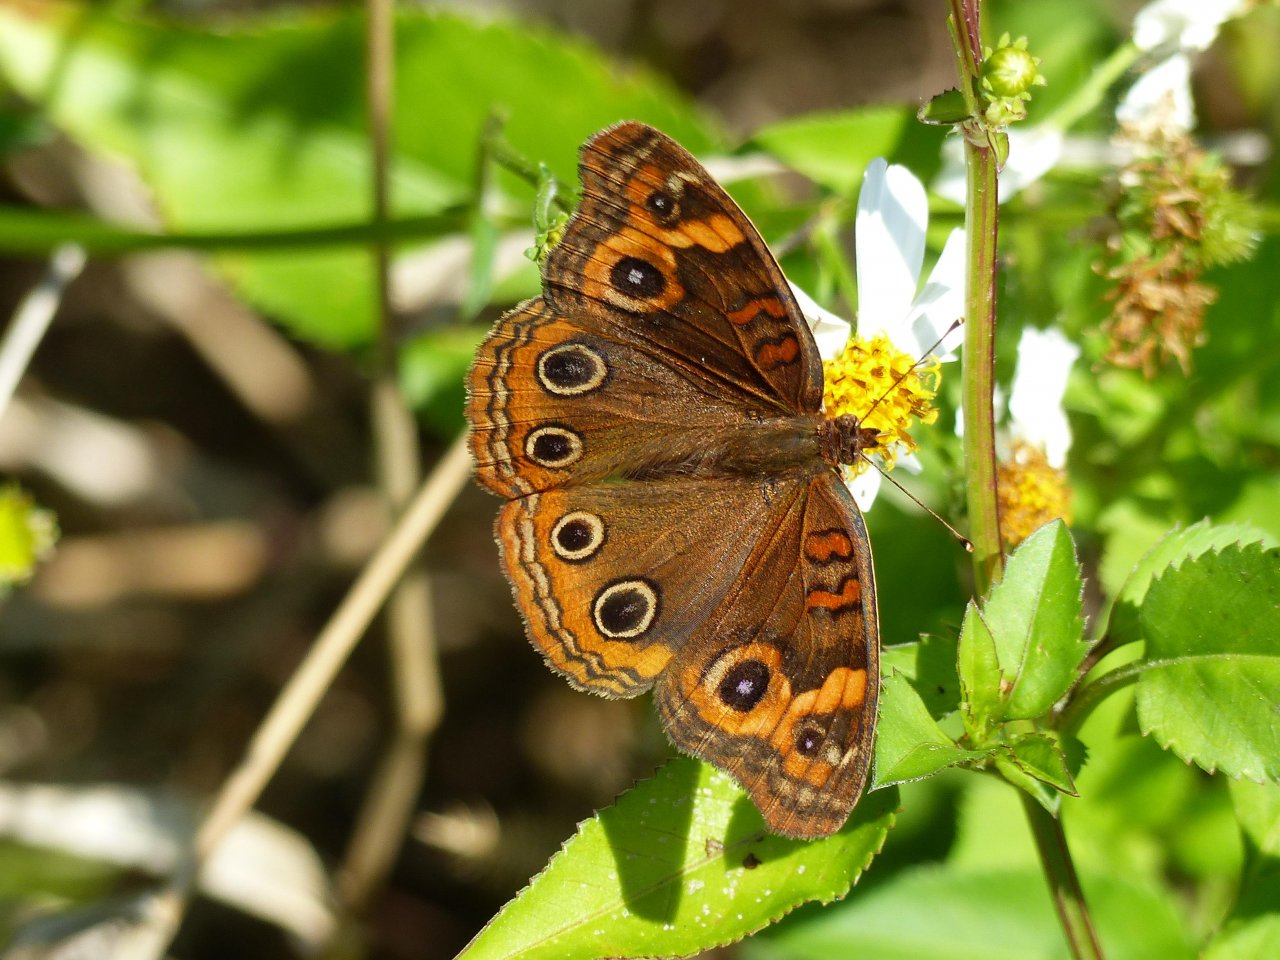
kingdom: Animalia
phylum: Arthropoda
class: Insecta
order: Lepidoptera
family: Nymphalidae
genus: Junonia
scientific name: Junonia evarete
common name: Mangrove Buckeye
